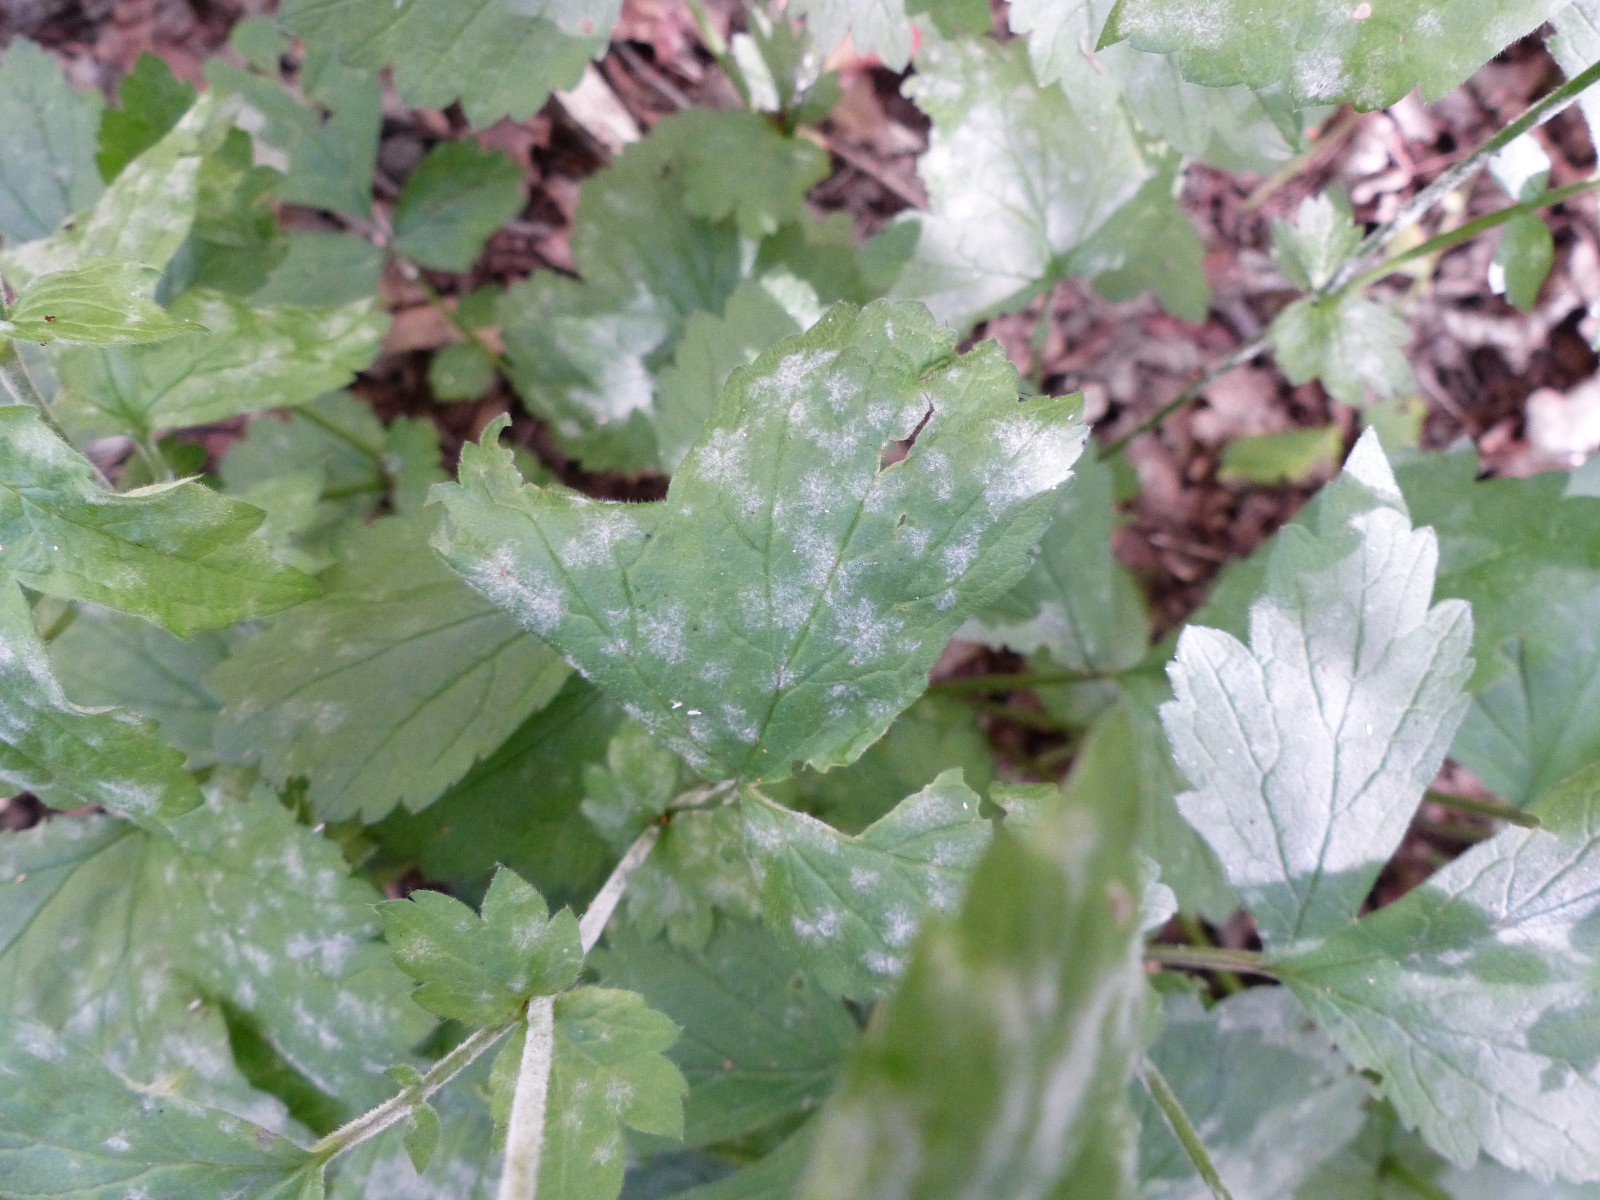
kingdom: Fungi
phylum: Ascomycota
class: Leotiomycetes
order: Helotiales
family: Erysiphaceae
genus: Podosphaera
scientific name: Podosphaera aphanis
